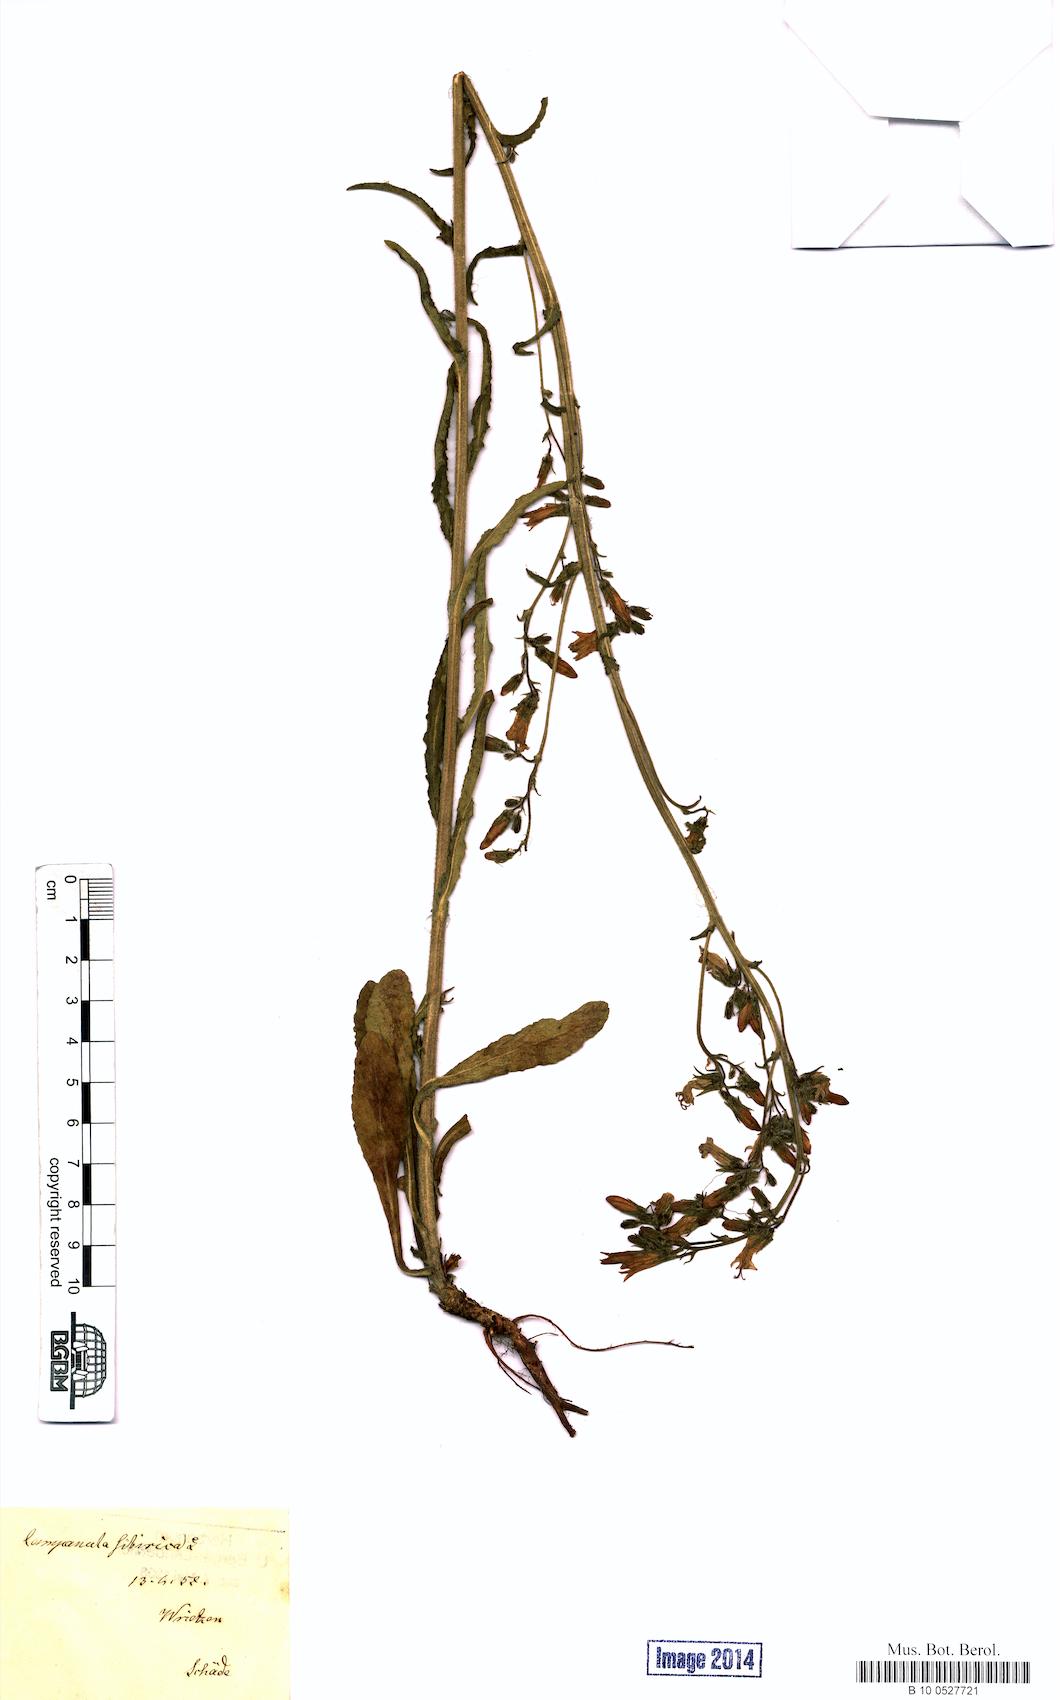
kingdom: Plantae
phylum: Tracheophyta
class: Magnoliopsida
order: Asterales
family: Campanulaceae
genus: Campanula
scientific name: Campanula sibirica
